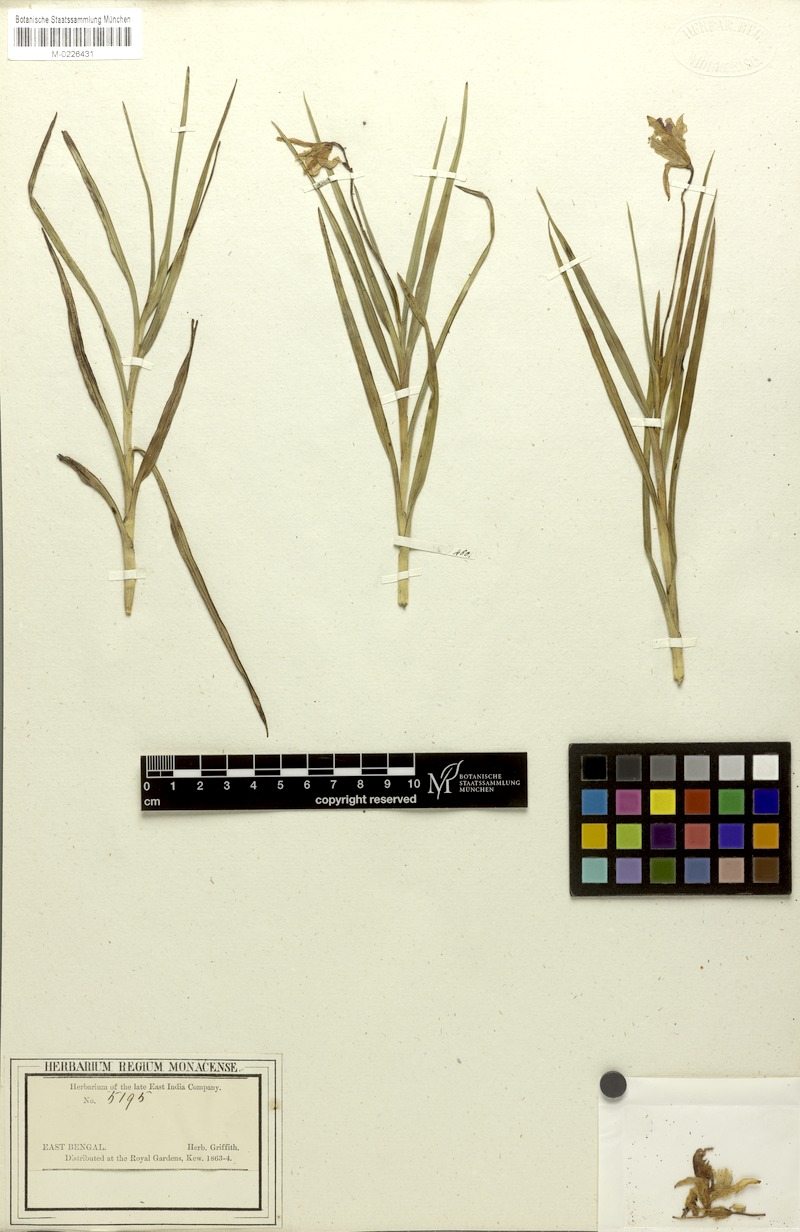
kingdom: Plantae
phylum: Tracheophyta
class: Liliopsida
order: Asparagales
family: Orchidaceae
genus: Arundina
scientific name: Arundina graminifolia
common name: Bamboo orchid
